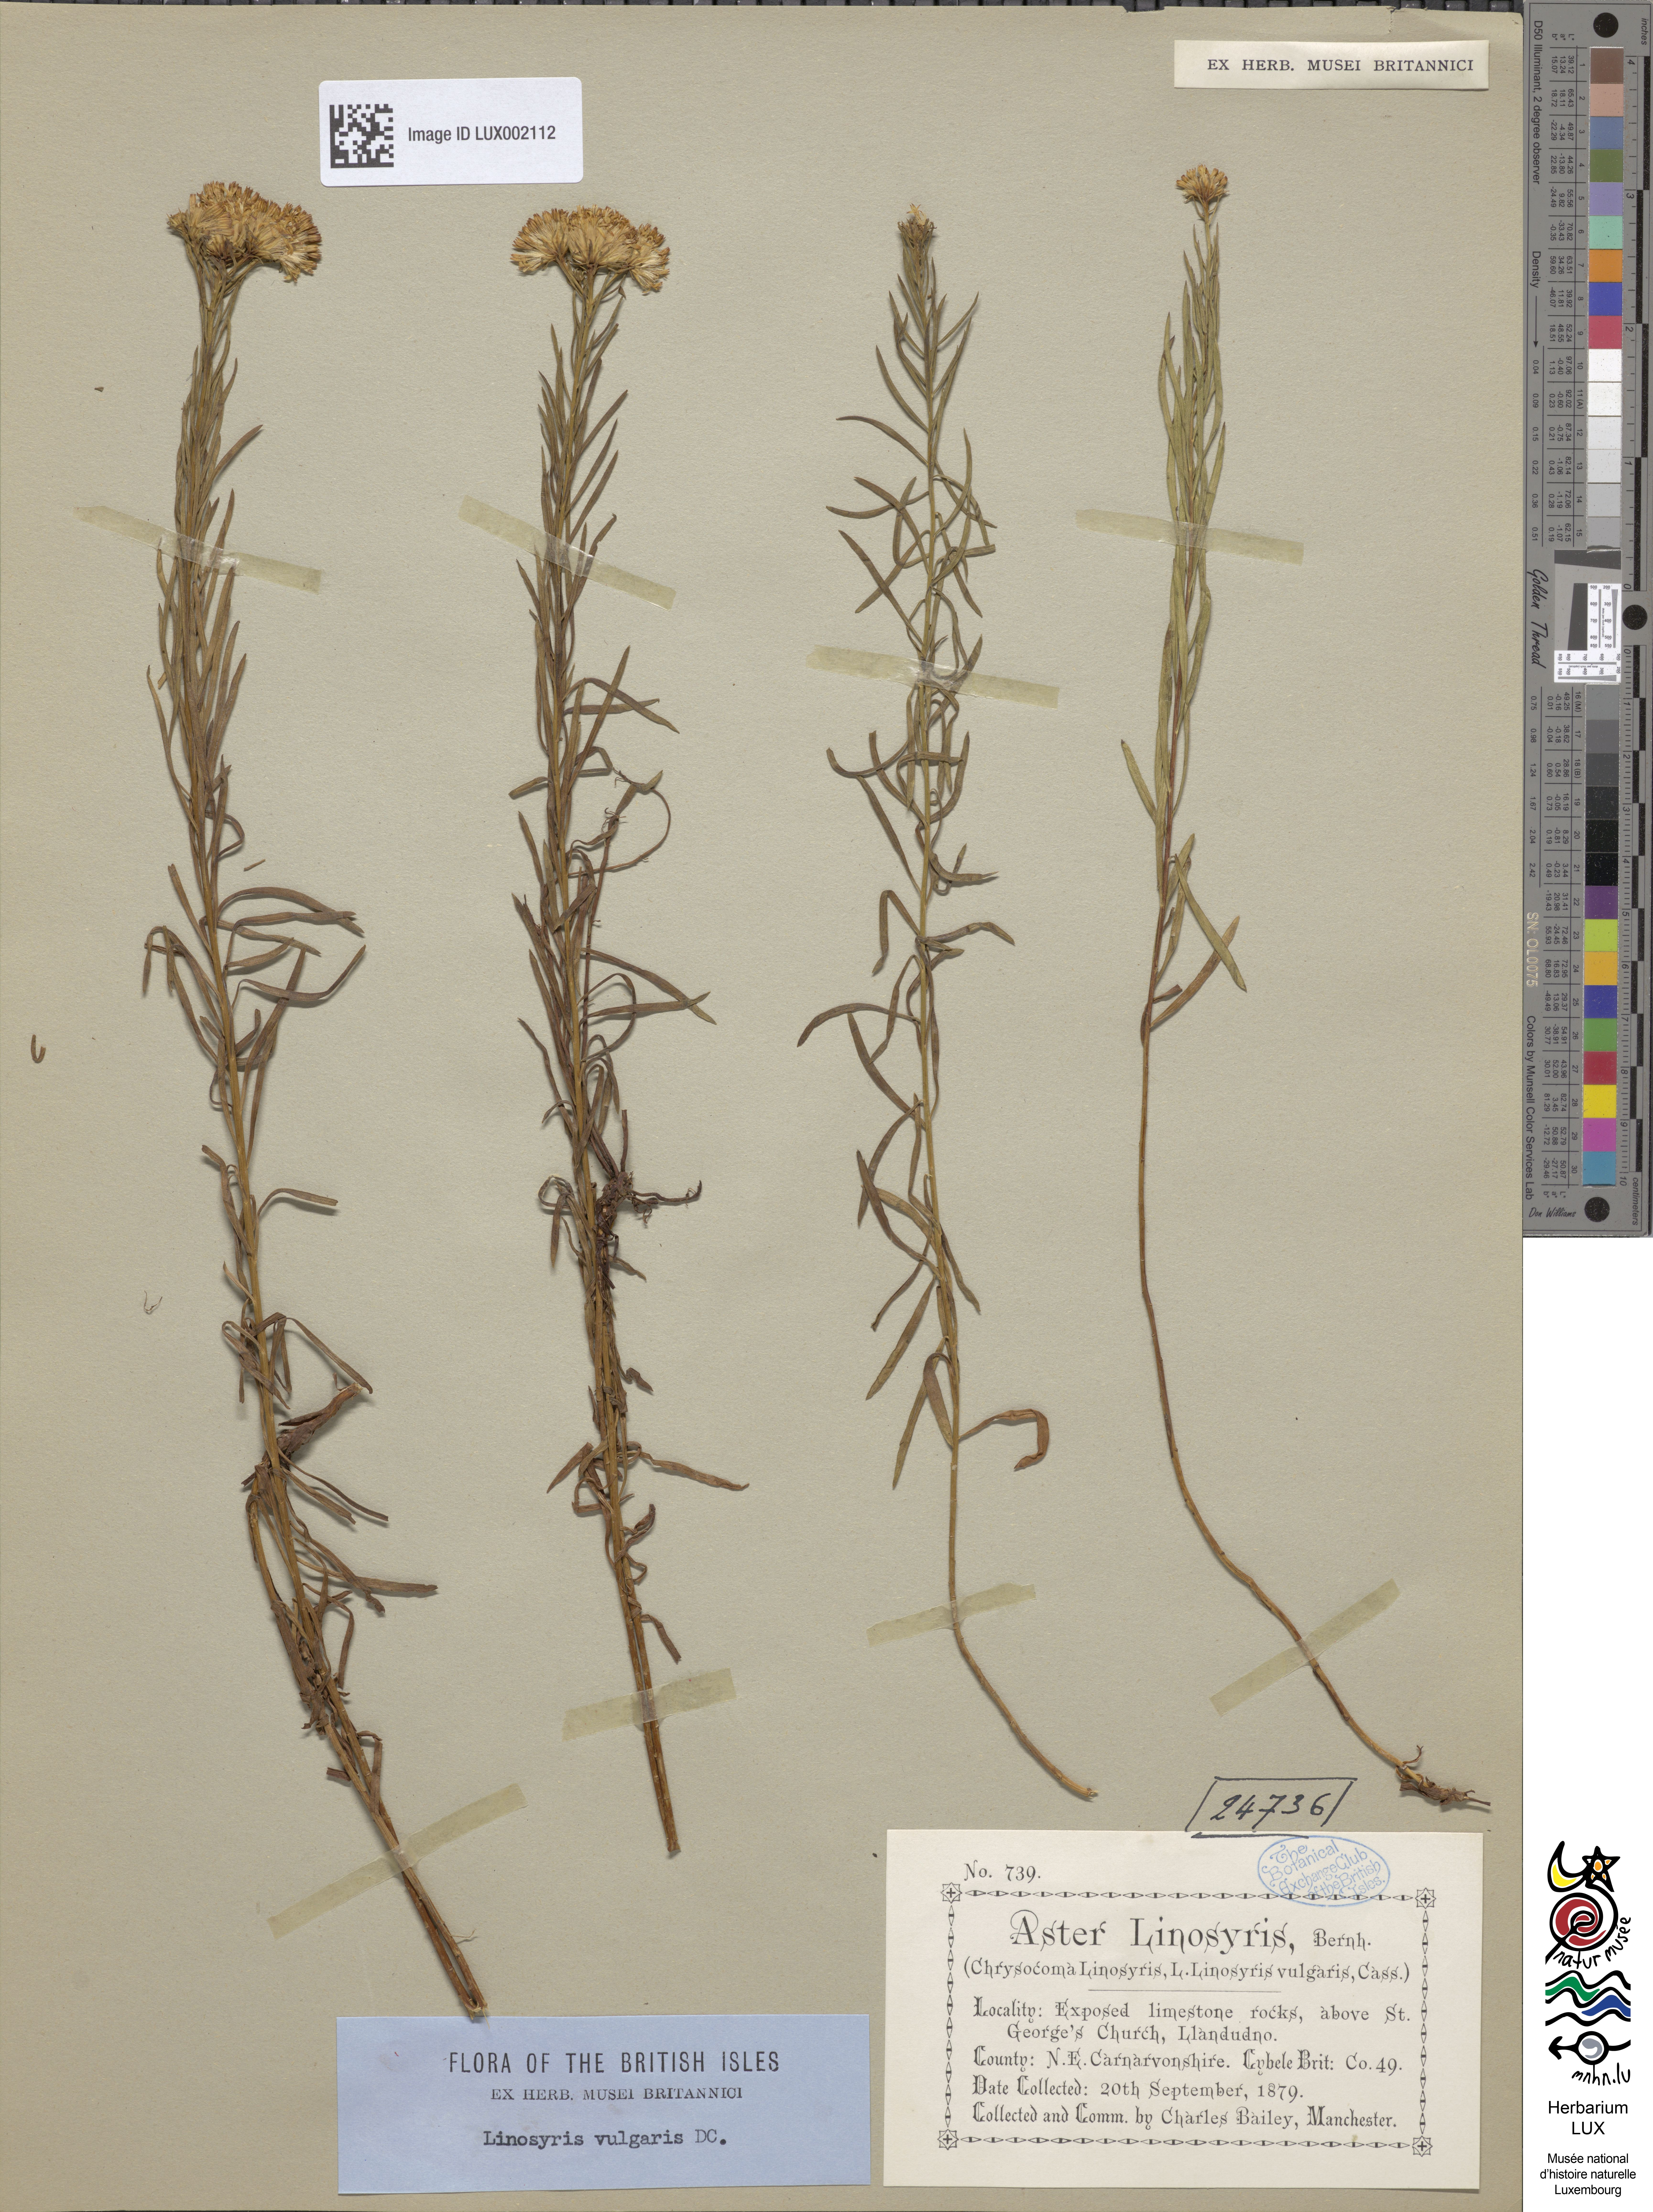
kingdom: Plantae
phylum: Tracheophyta
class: Magnoliopsida
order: Asterales
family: Asteraceae
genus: Galatella
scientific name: Galatella linosyris
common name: Goldilocks aster
